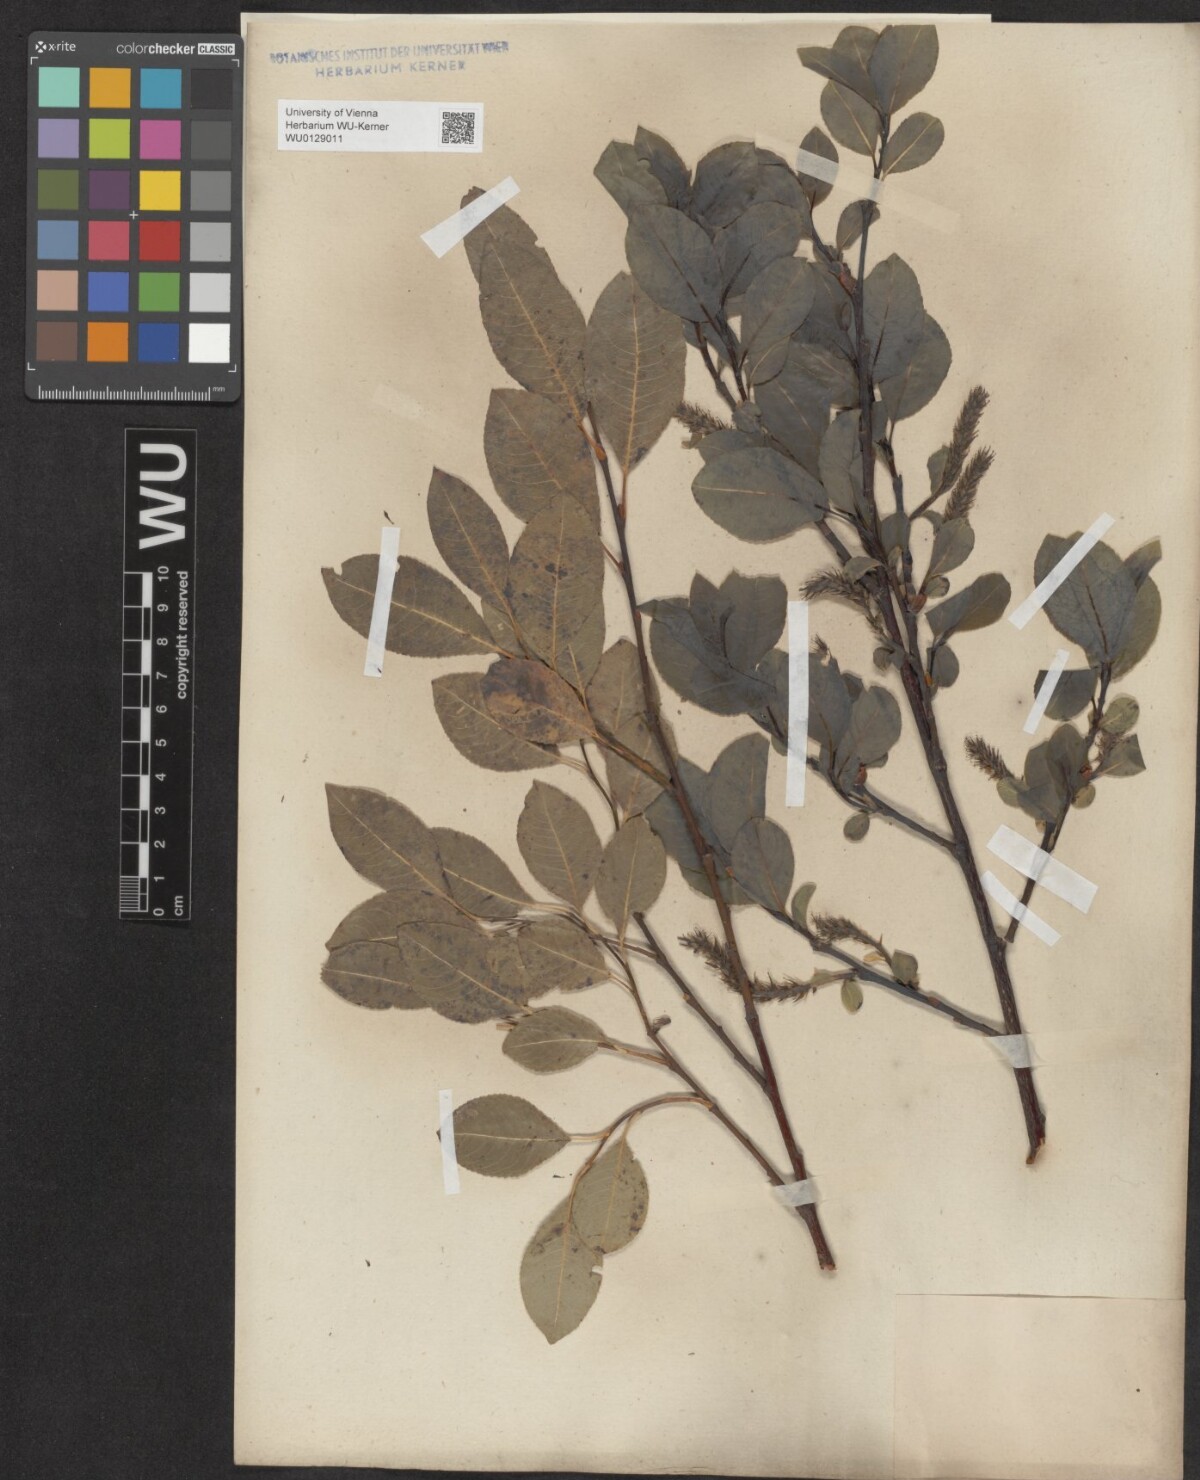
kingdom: Plantae
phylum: Tracheophyta
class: Magnoliopsida
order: Malpighiales
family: Salicaceae
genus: Salix
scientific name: Salix glabra
